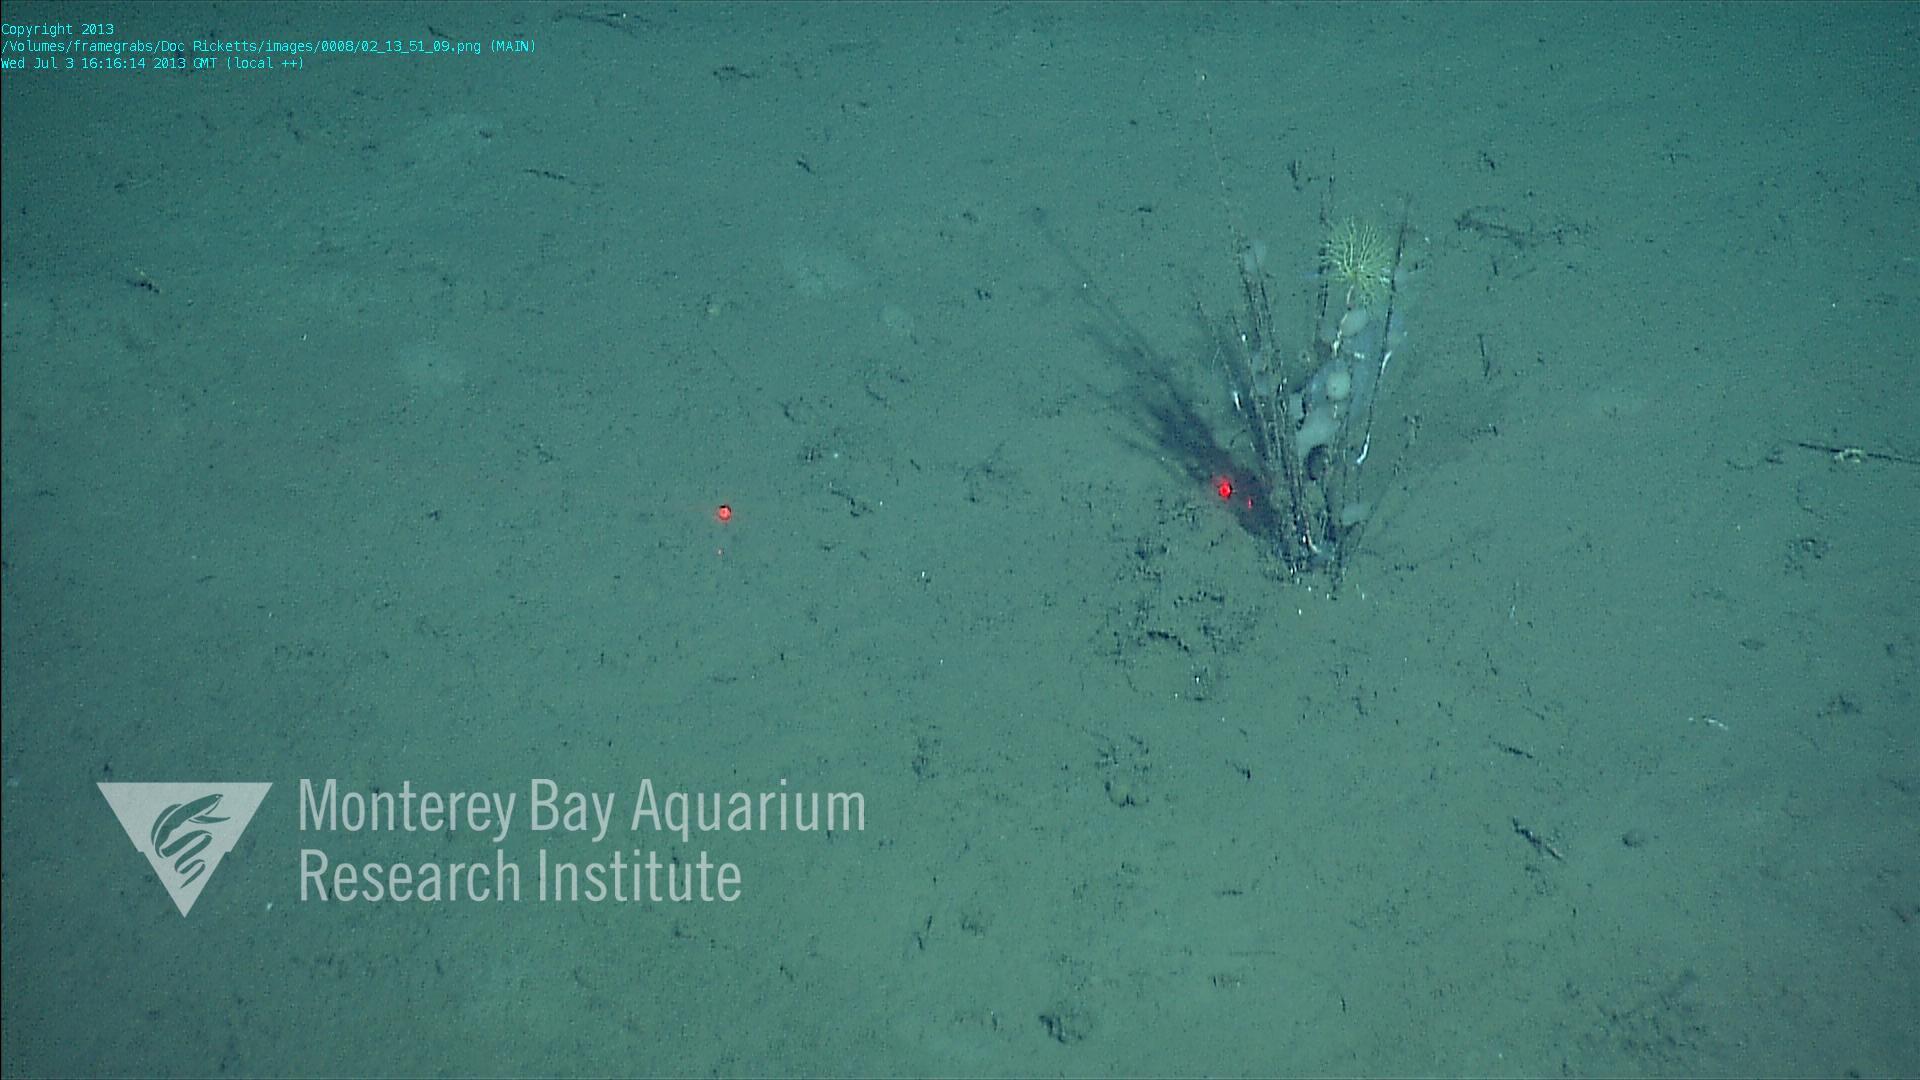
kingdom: Animalia
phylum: Porifera
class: Hexactinellida
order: Lyssacinosida
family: Rossellidae
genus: Bathydorus
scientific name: Bathydorus spinosus
